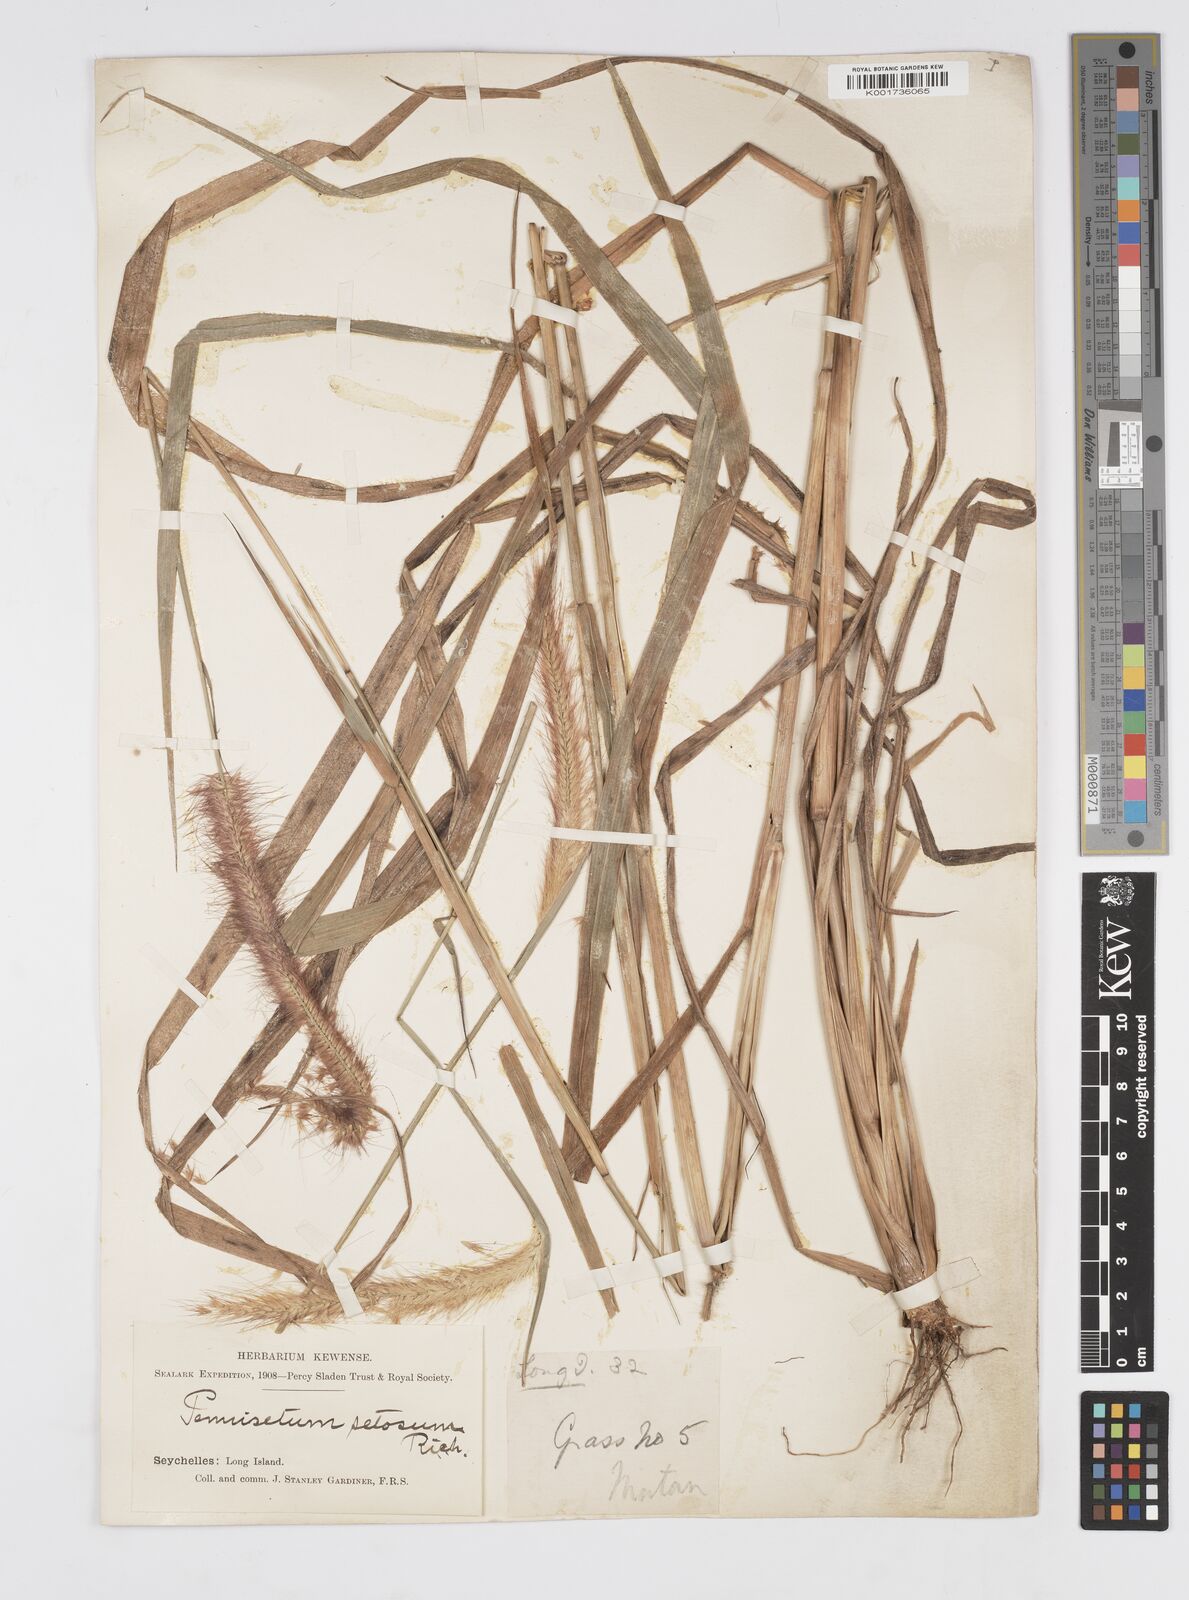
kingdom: Plantae
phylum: Tracheophyta
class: Liliopsida
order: Poales
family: Poaceae
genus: Setaria
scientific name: Setaria parviflora
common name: Knotroot bristle-grass
